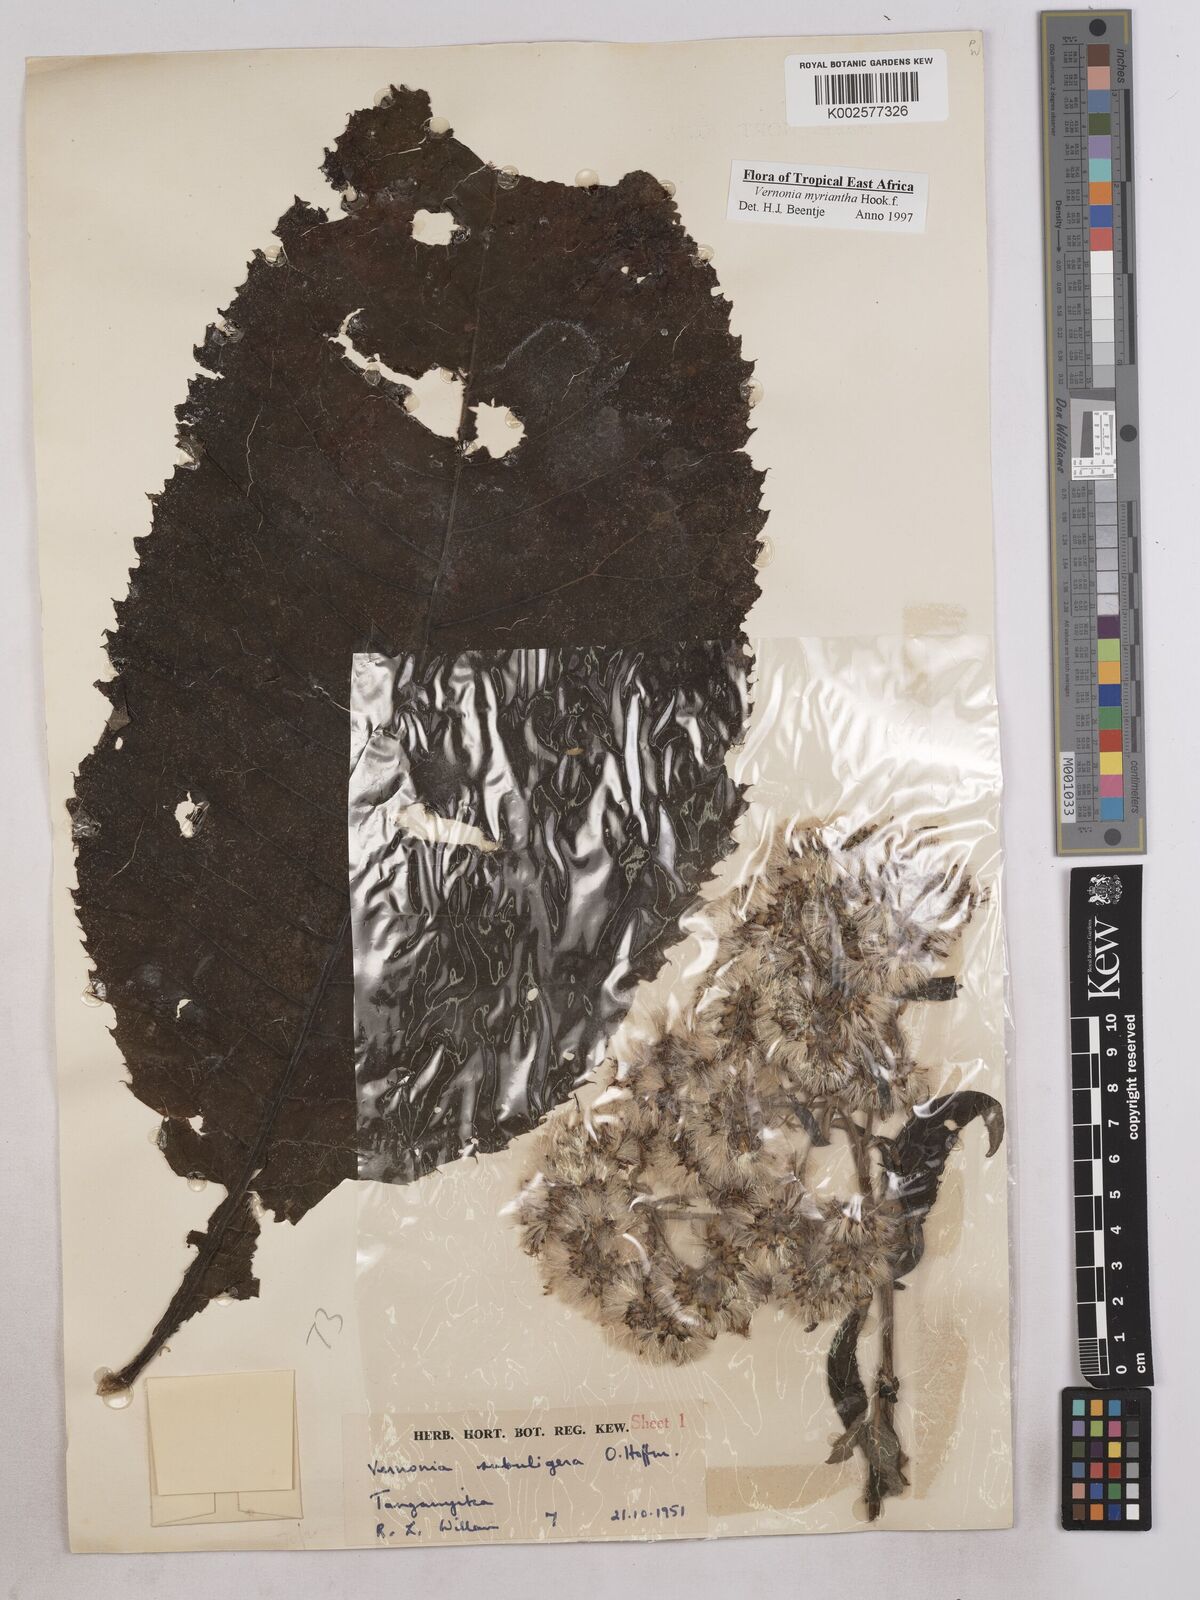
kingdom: Plantae
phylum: Tracheophyta
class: Magnoliopsida
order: Asterales
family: Asteraceae
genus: Gymnanthemum
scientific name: Gymnanthemum myrianthum
